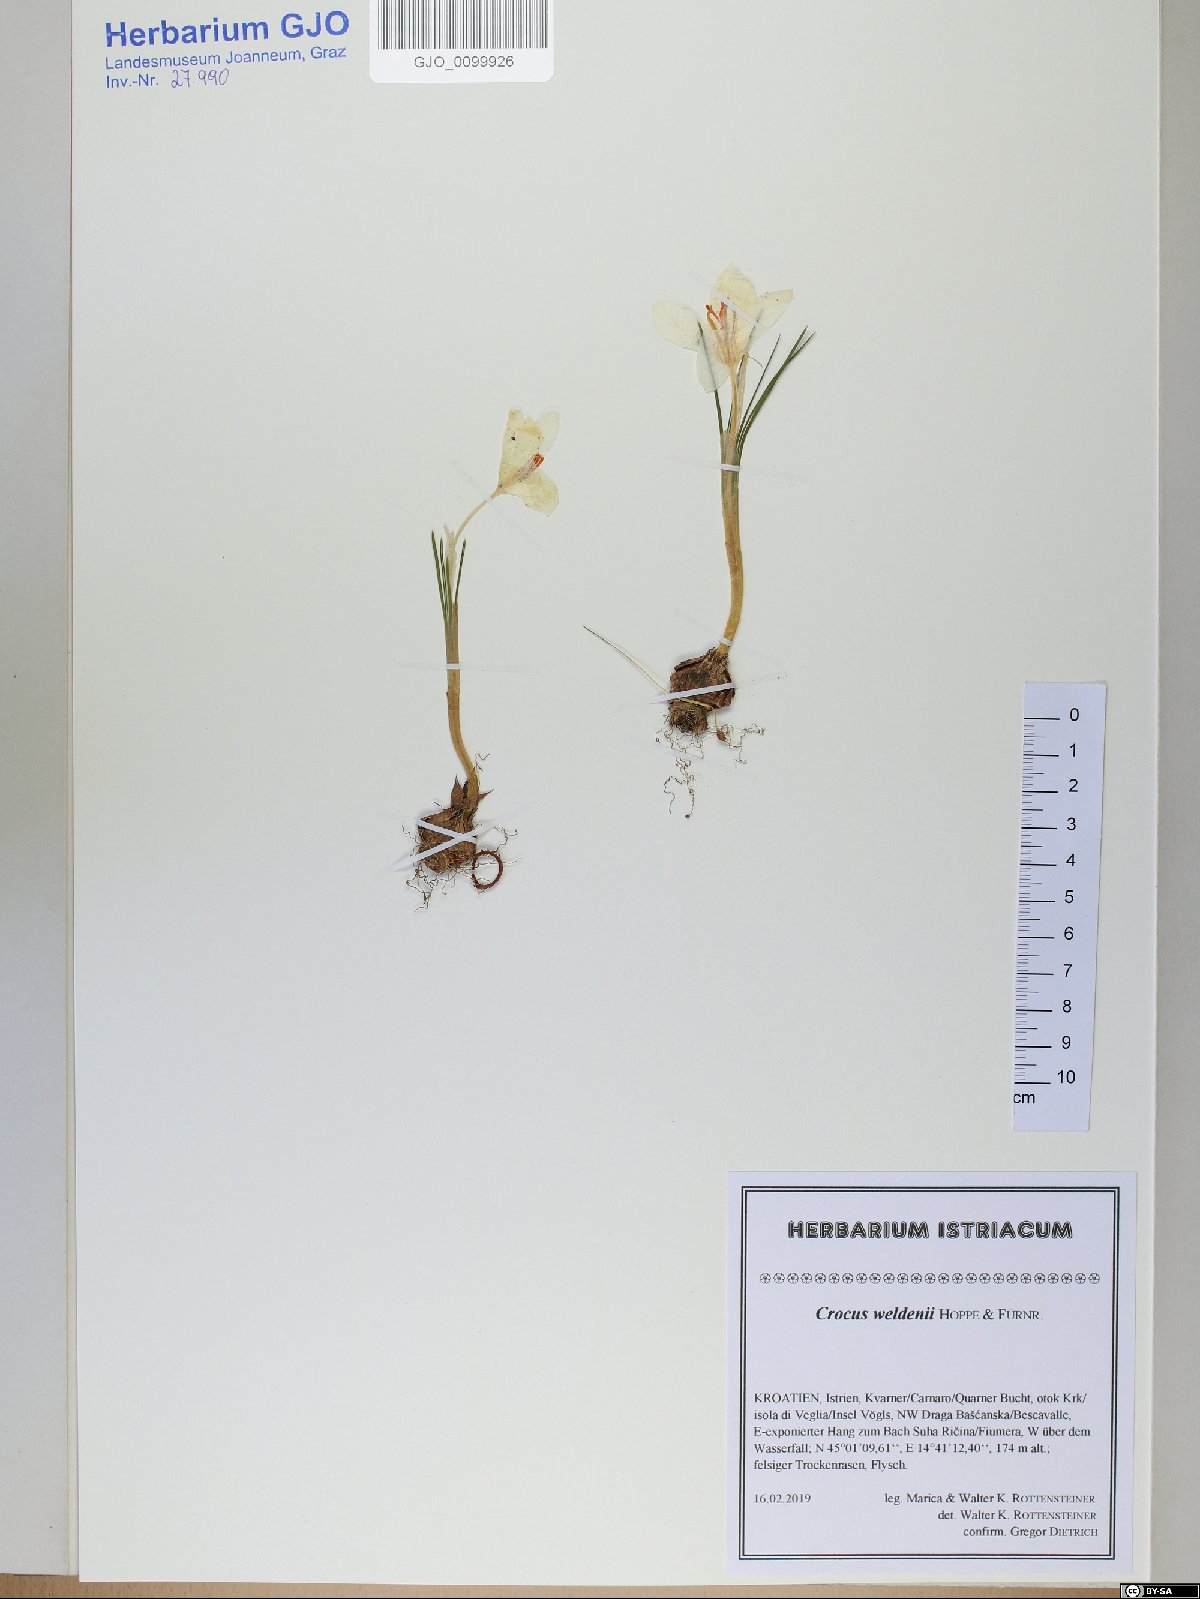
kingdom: Plantae
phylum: Tracheophyta
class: Liliopsida
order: Asparagales
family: Iridaceae
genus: Crocus
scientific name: Crocus weldenii
